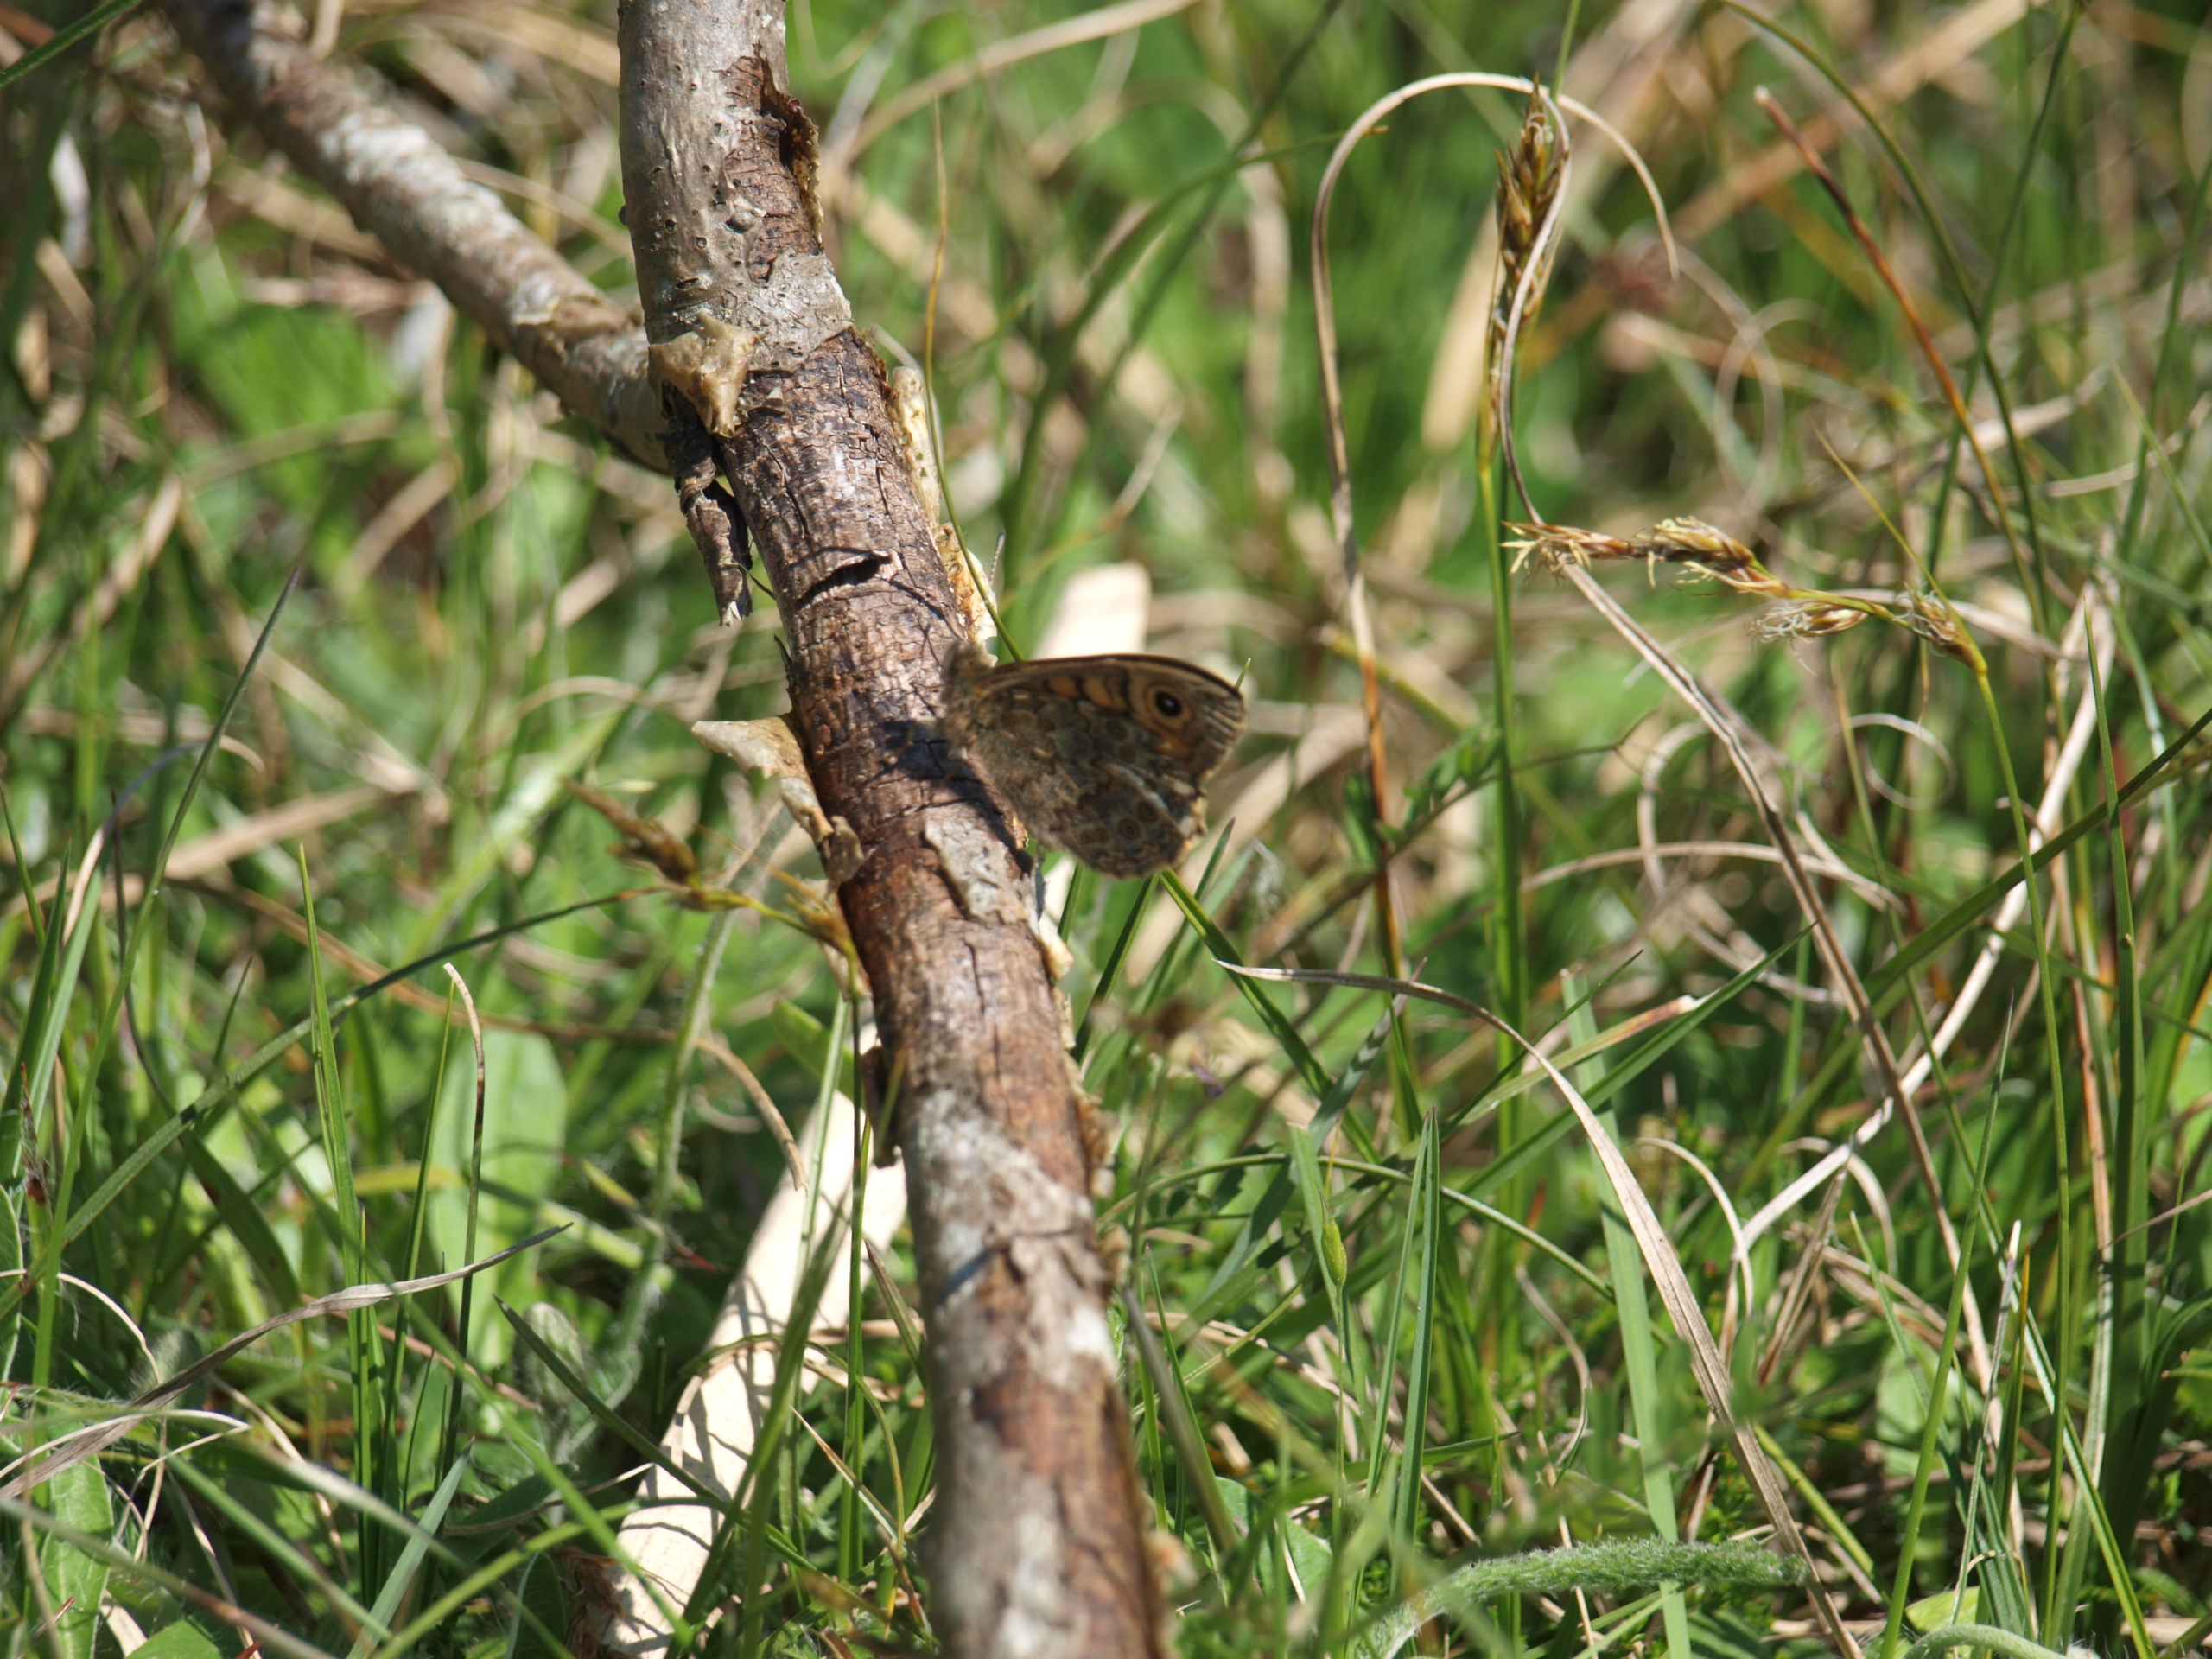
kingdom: Animalia
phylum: Arthropoda
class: Insecta
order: Lepidoptera
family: Nymphalidae
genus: Pararge
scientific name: Pararge Lasiommata megera
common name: Vejrandøje
